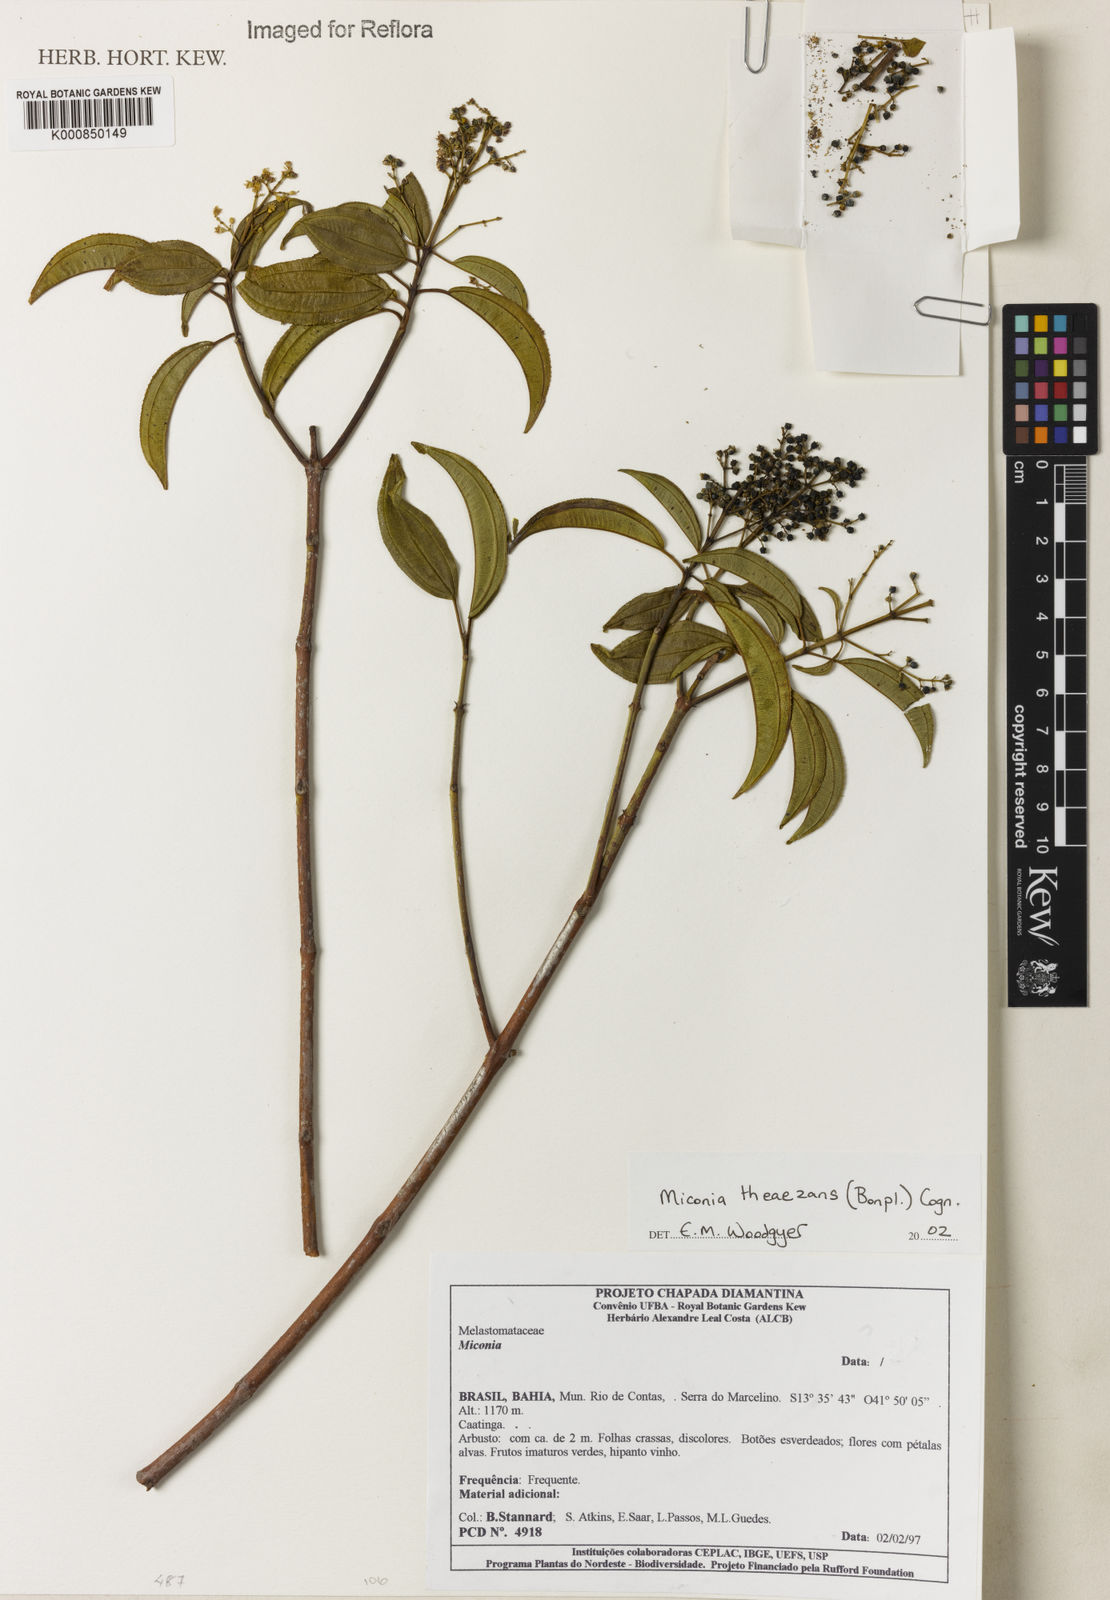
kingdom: Plantae
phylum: Tracheophyta
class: Magnoliopsida
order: Myrtales
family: Melastomataceae
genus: Miconia
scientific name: Miconia
